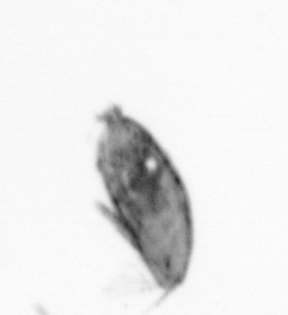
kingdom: Animalia
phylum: Arthropoda
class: Maxillopoda
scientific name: Maxillopoda
